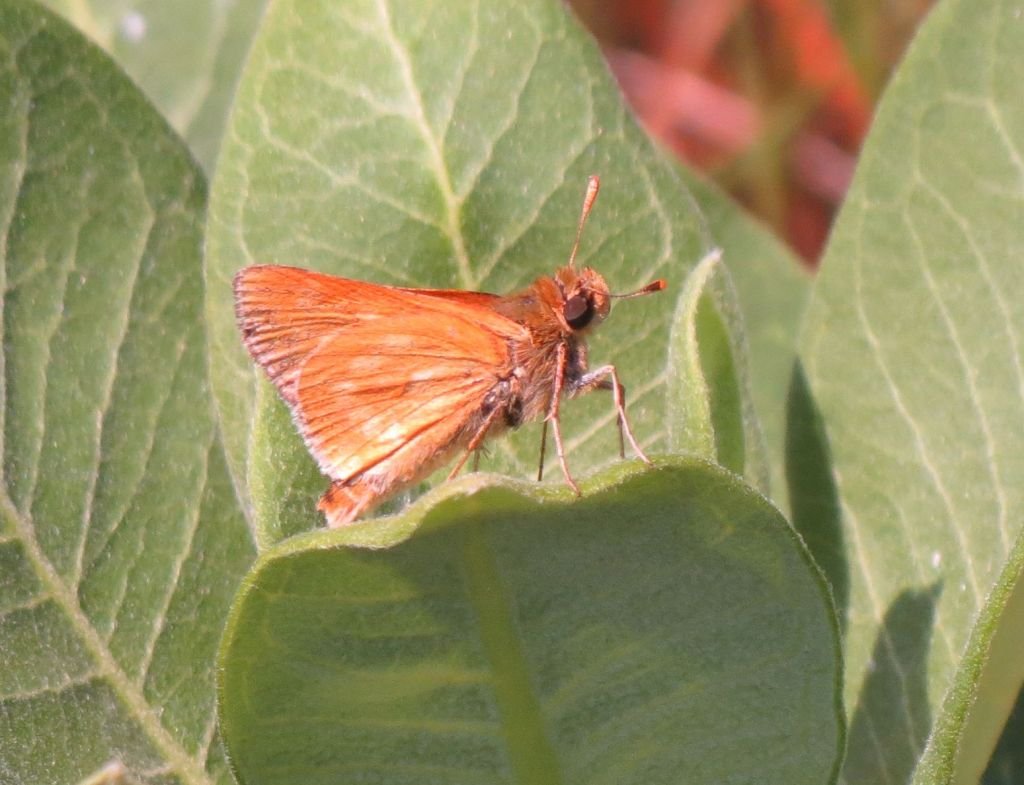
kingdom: Animalia
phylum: Arthropoda
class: Insecta
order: Lepidoptera
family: Hesperiidae
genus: Polites
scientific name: Polites
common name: Long Dash Skipper
